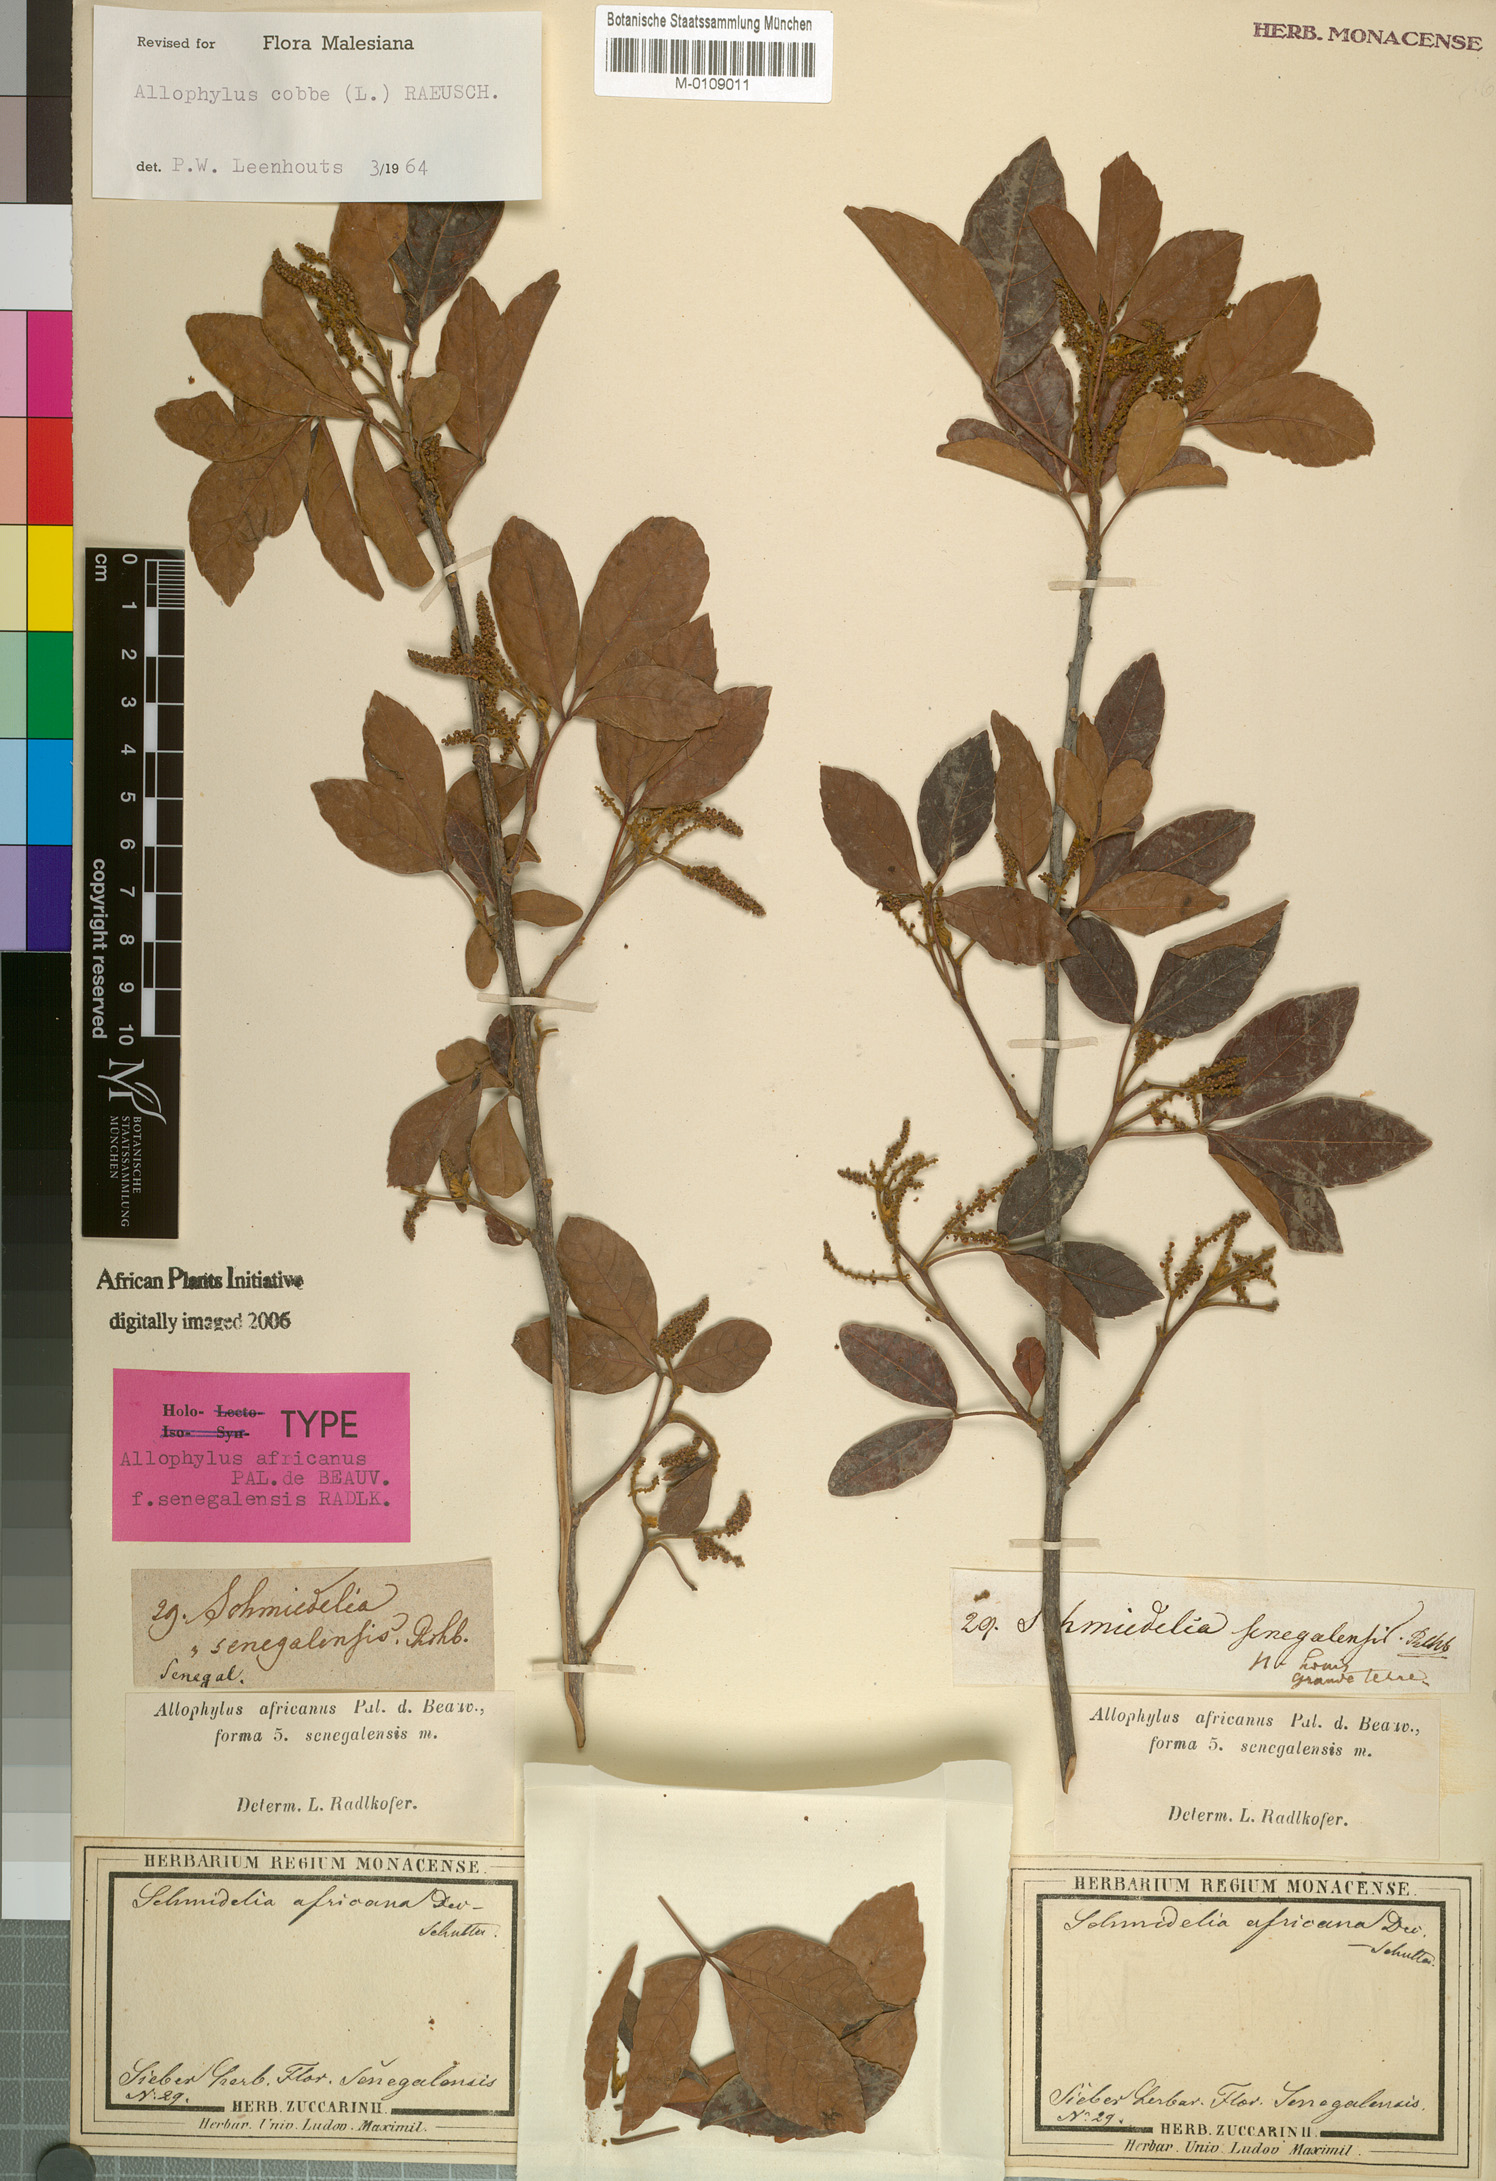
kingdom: Plantae
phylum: Tracheophyta
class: Magnoliopsida
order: Sapindales
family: Sapindaceae
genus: Allophylus
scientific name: Allophylus cobbe
